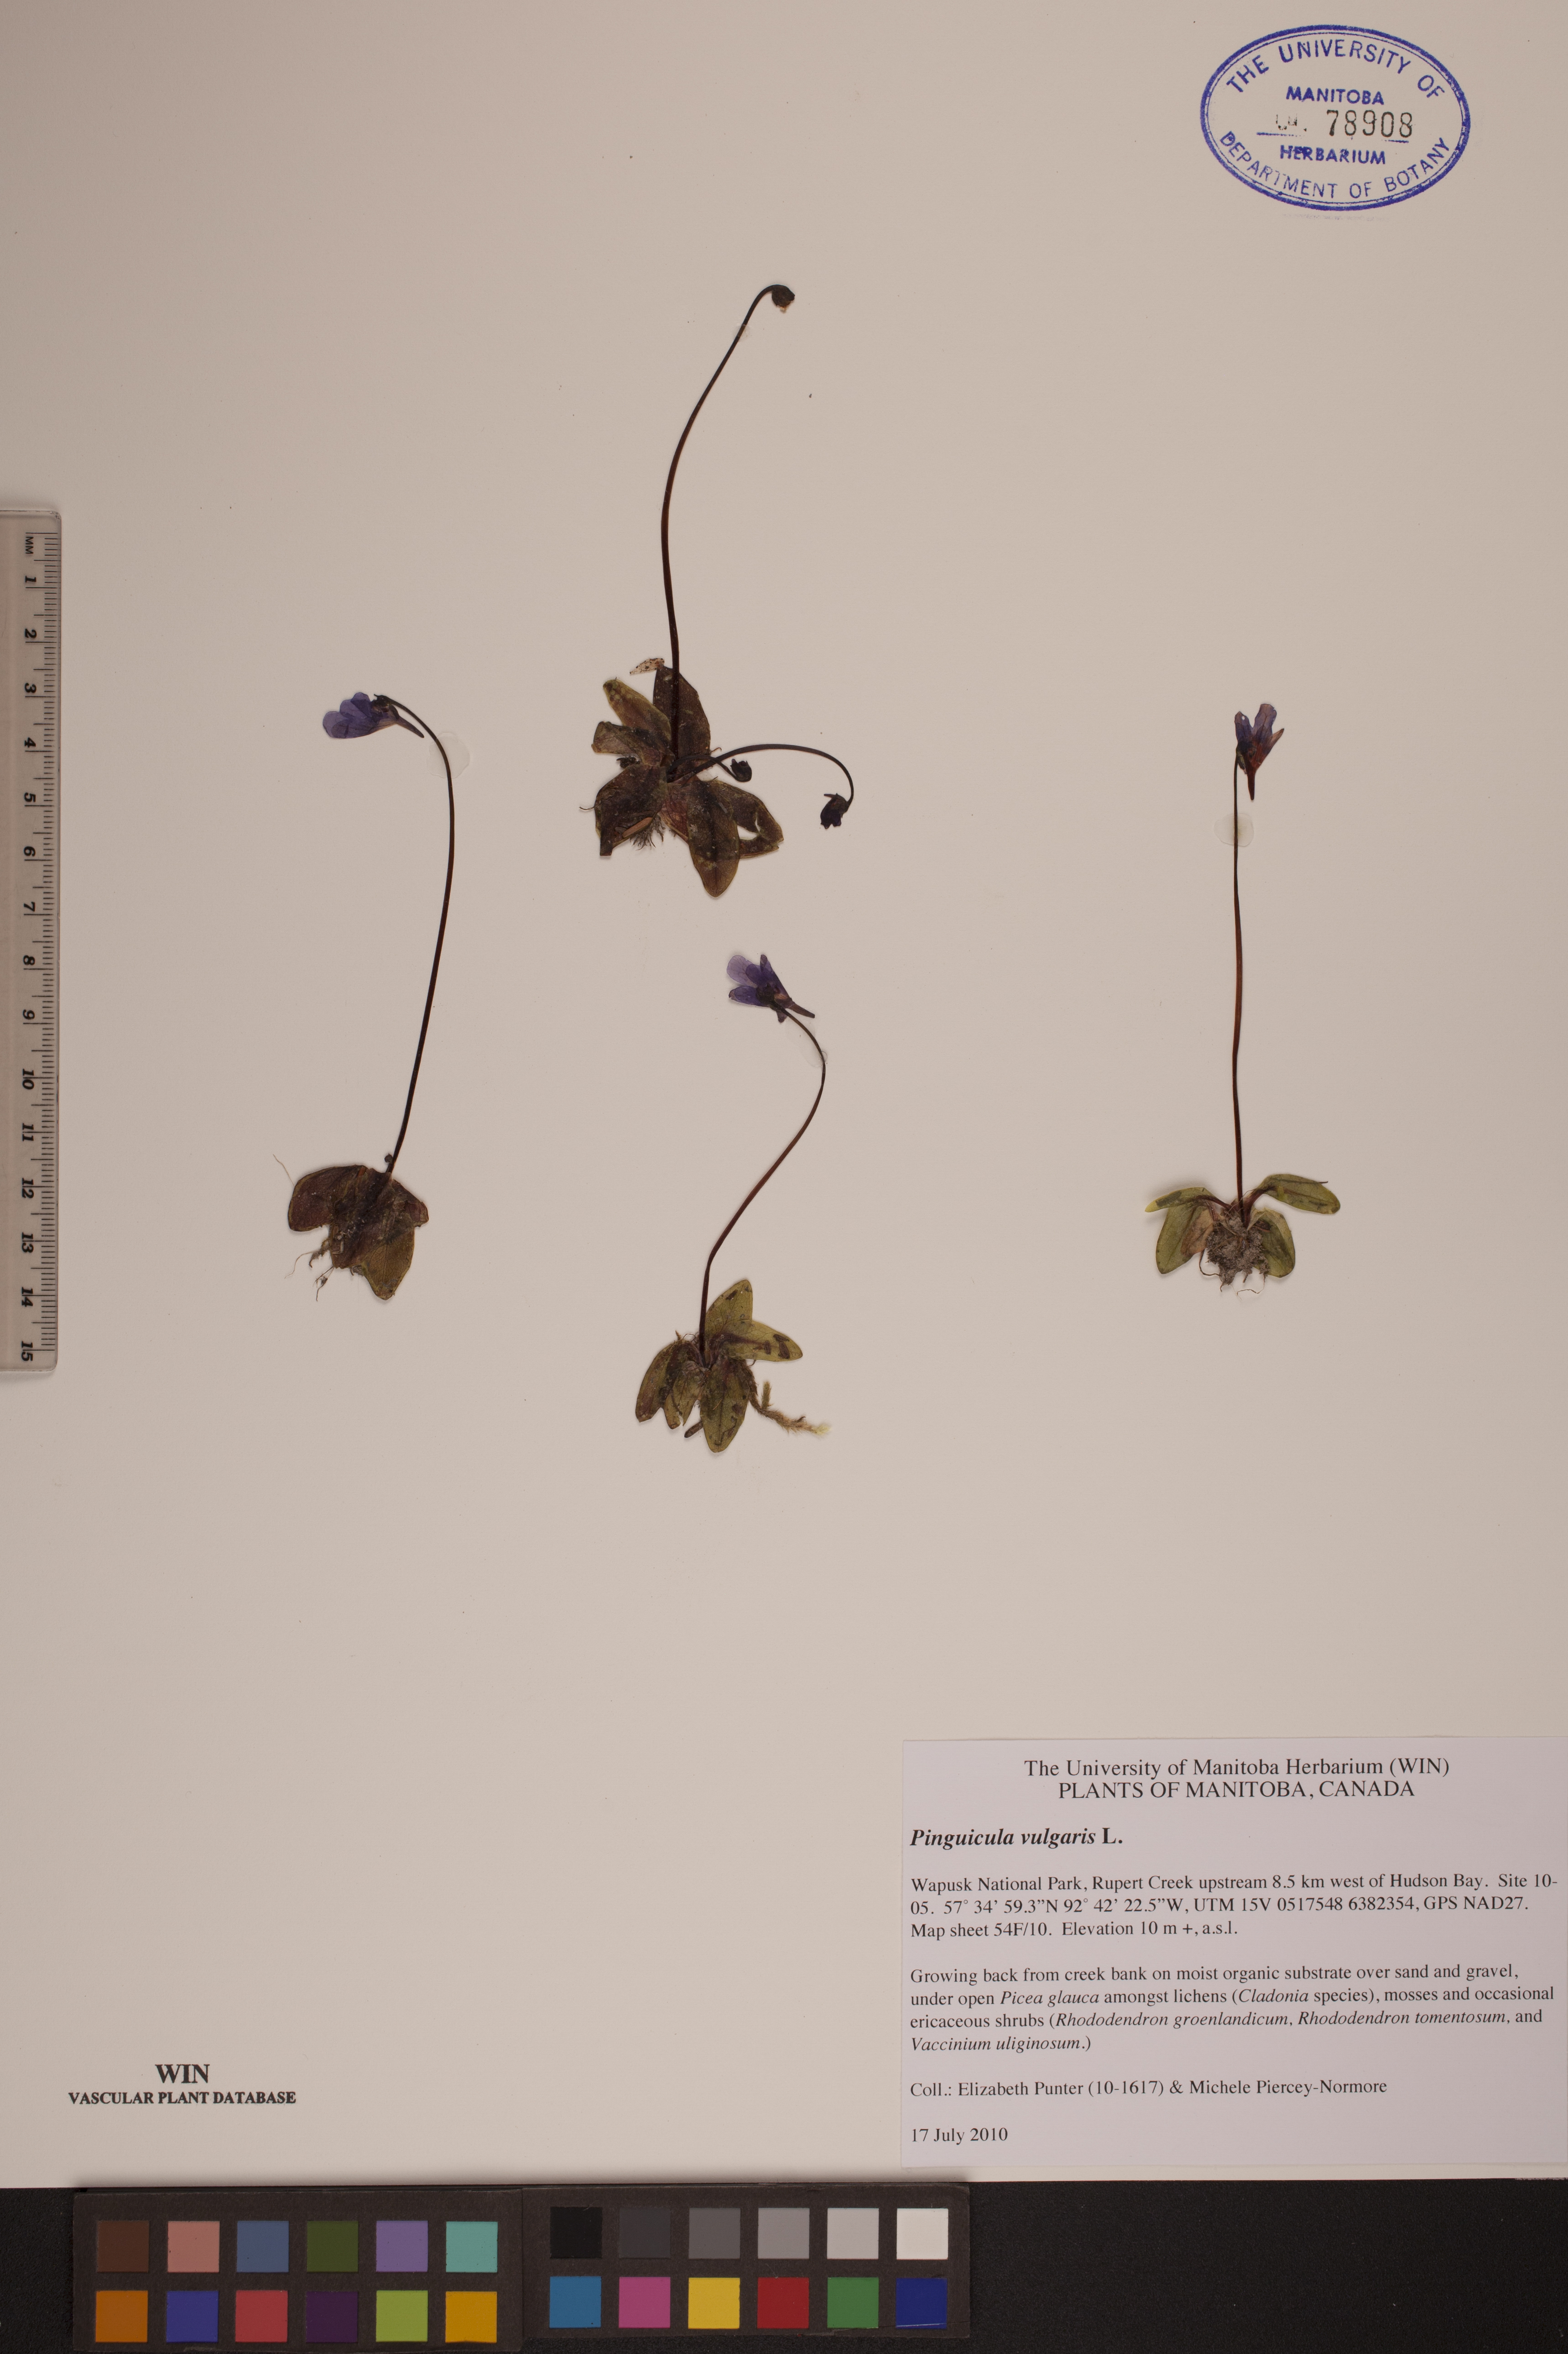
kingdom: Plantae
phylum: Tracheophyta
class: Magnoliopsida
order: Lamiales
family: Lentibulariaceae
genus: Pinguicula
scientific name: Pinguicula vulgaris
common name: Common butterwort
